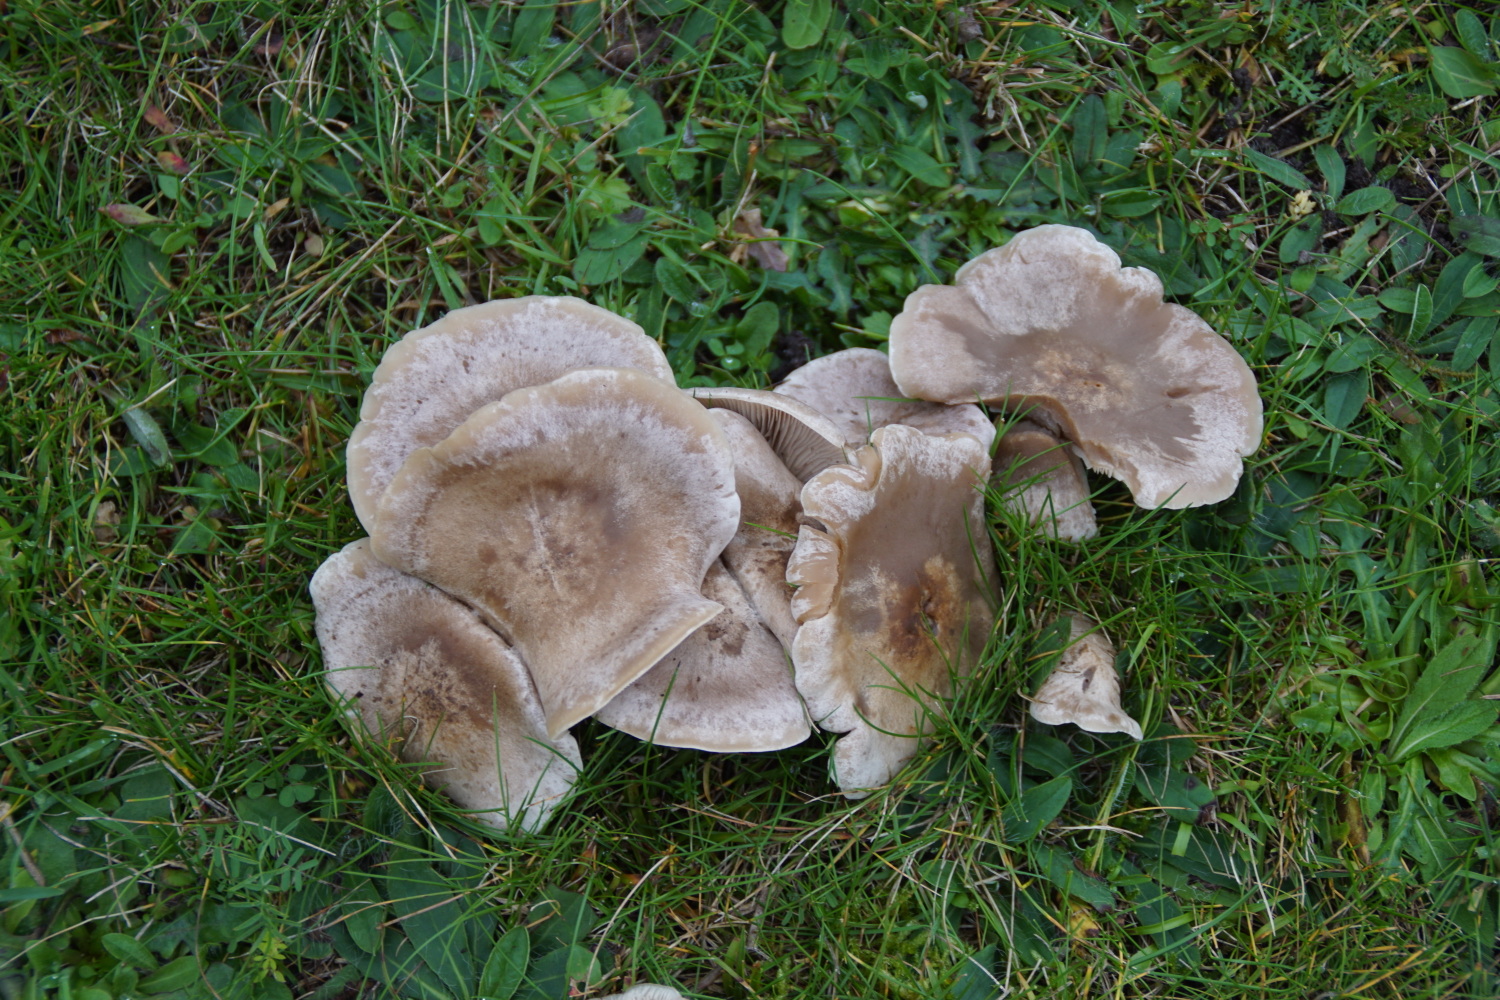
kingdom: Fungi
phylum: Basidiomycota
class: Agaricomycetes
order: Agaricales
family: Tricholomataceae
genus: Lepista
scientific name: Lepista panaeolus
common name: marmoreret hekseringshat
